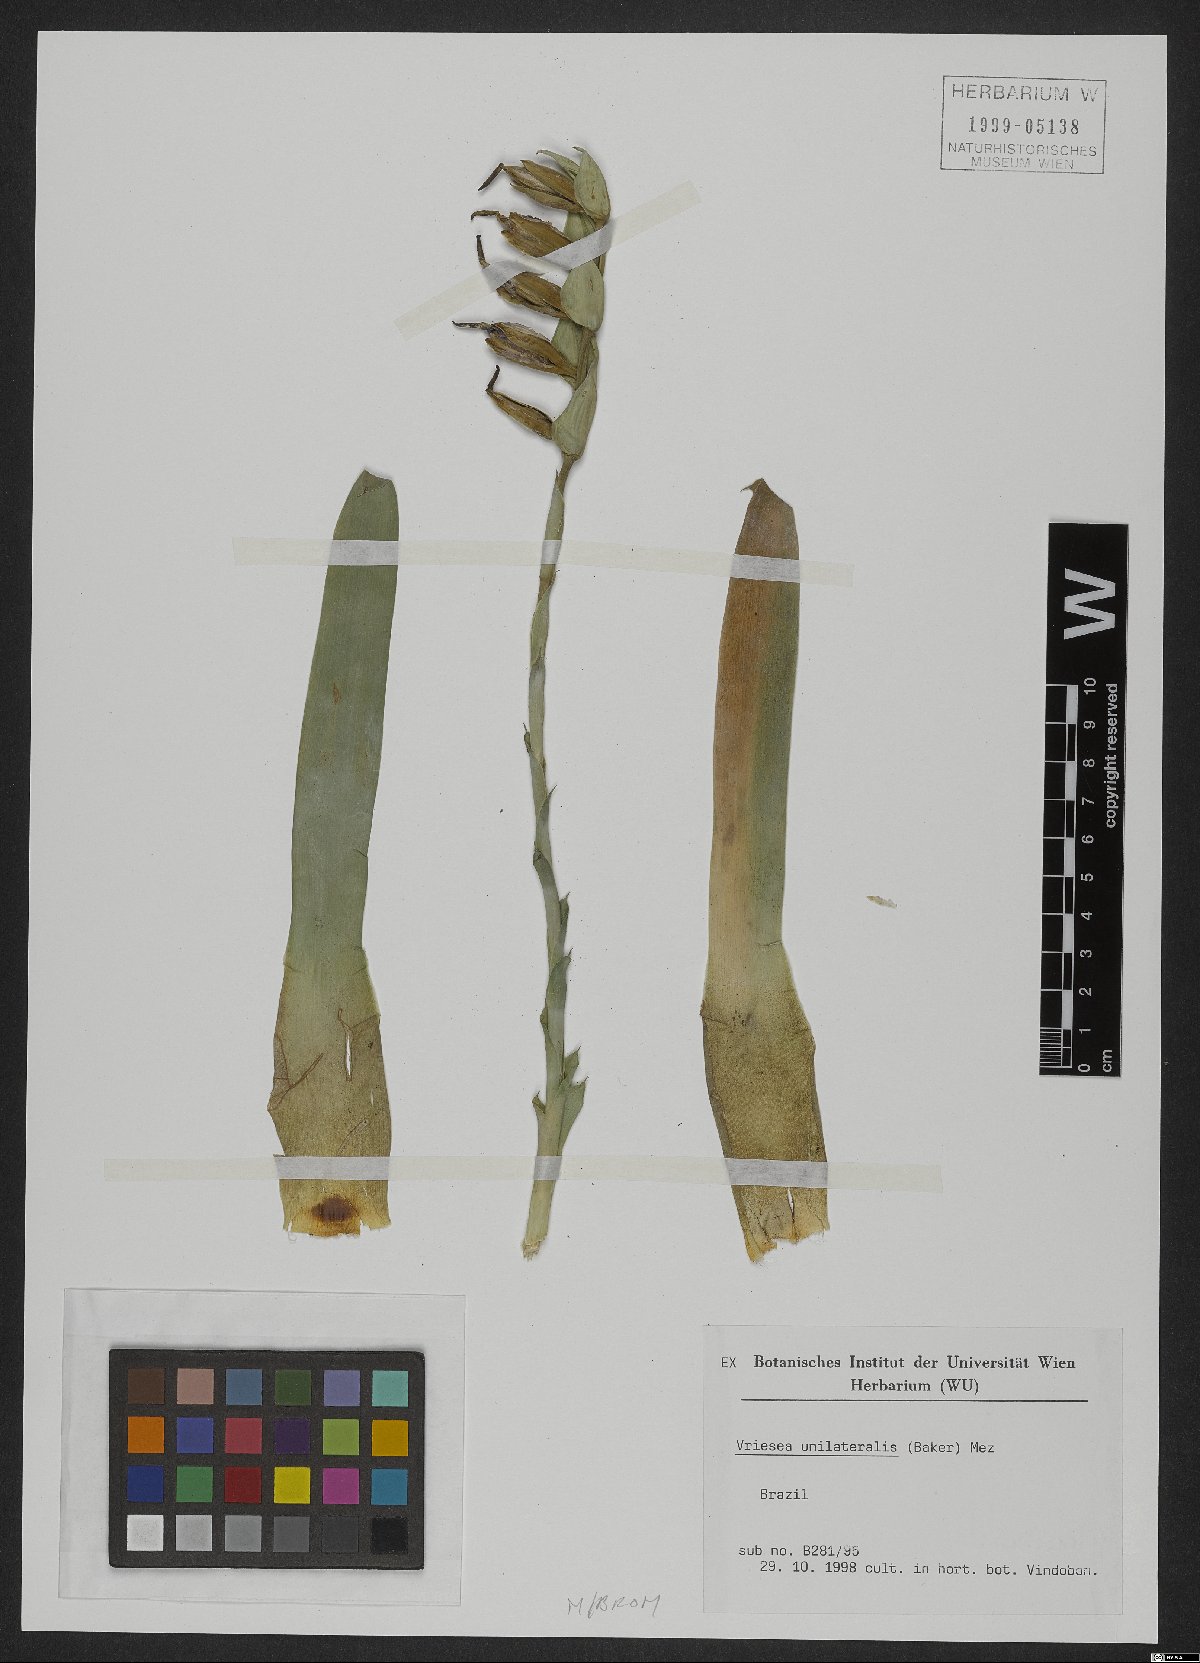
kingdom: Plantae
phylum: Tracheophyta
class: Liliopsida
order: Poales
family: Bromeliaceae
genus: Vriesea
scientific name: Vriesea unilateralis
